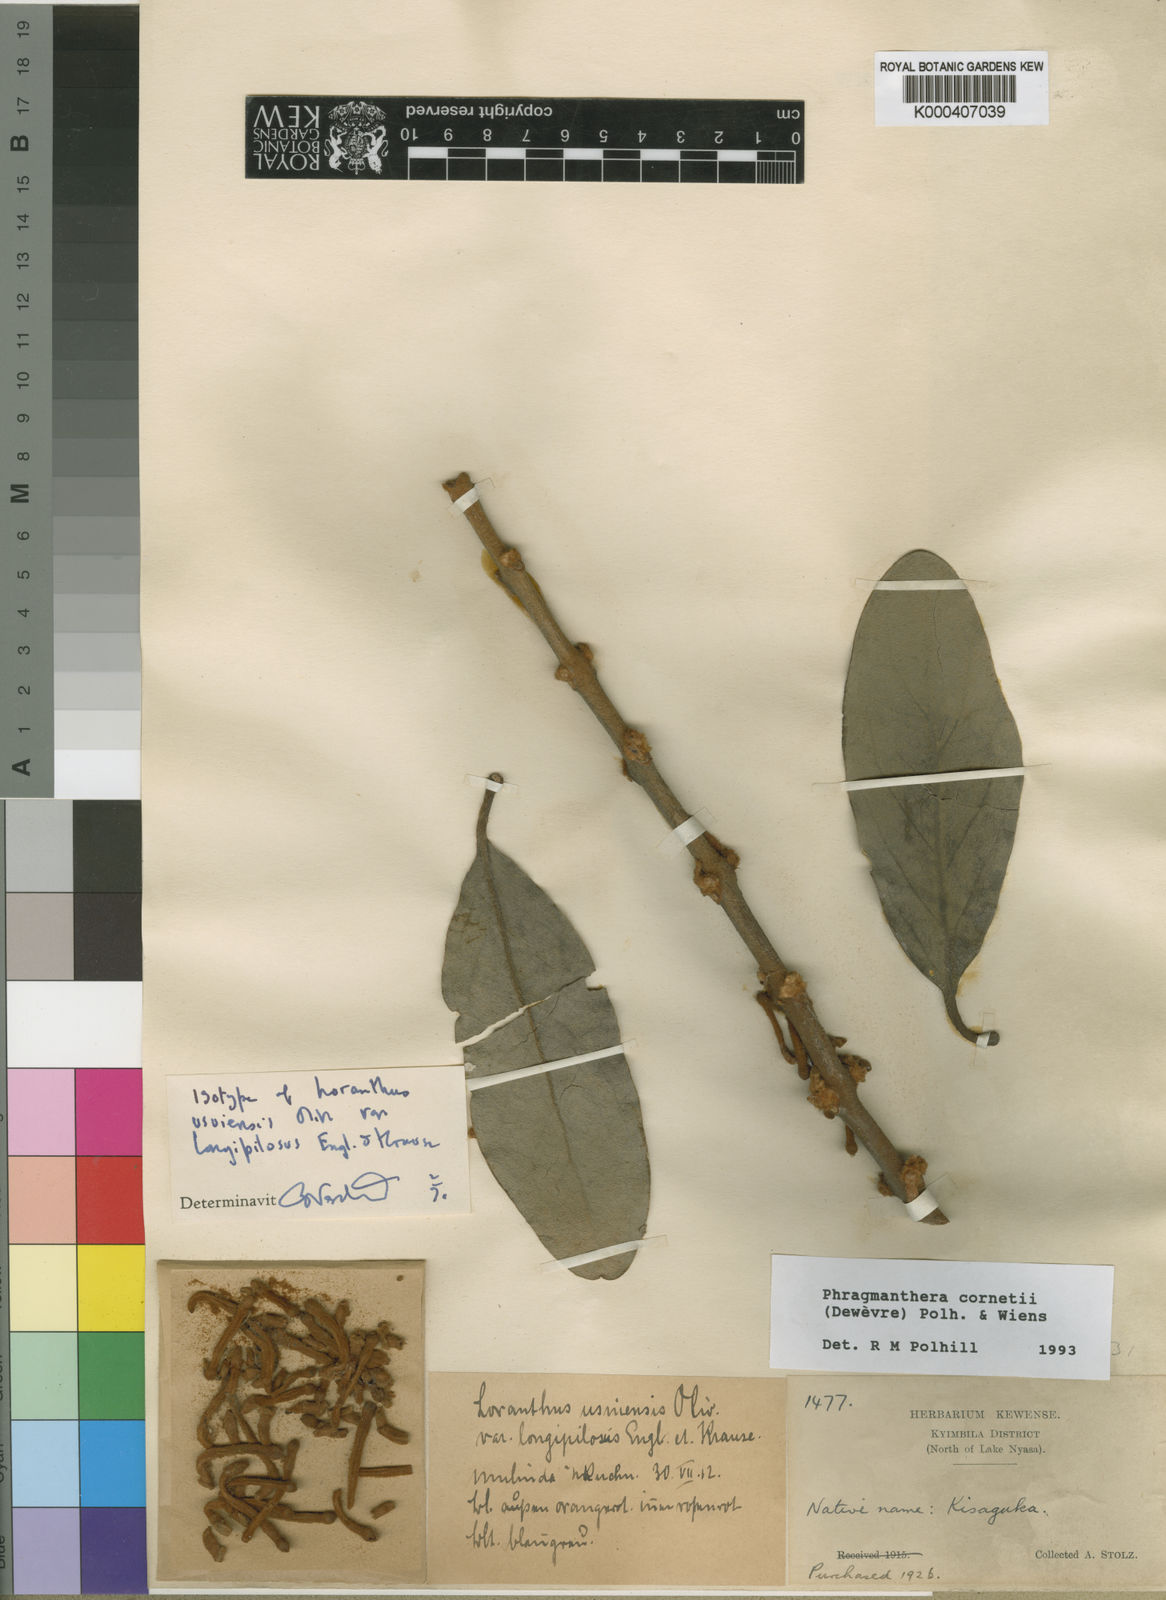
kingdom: Plantae
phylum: Tracheophyta
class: Magnoliopsida
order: Santalales
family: Loranthaceae
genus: Phragmanthera
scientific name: Phragmanthera
